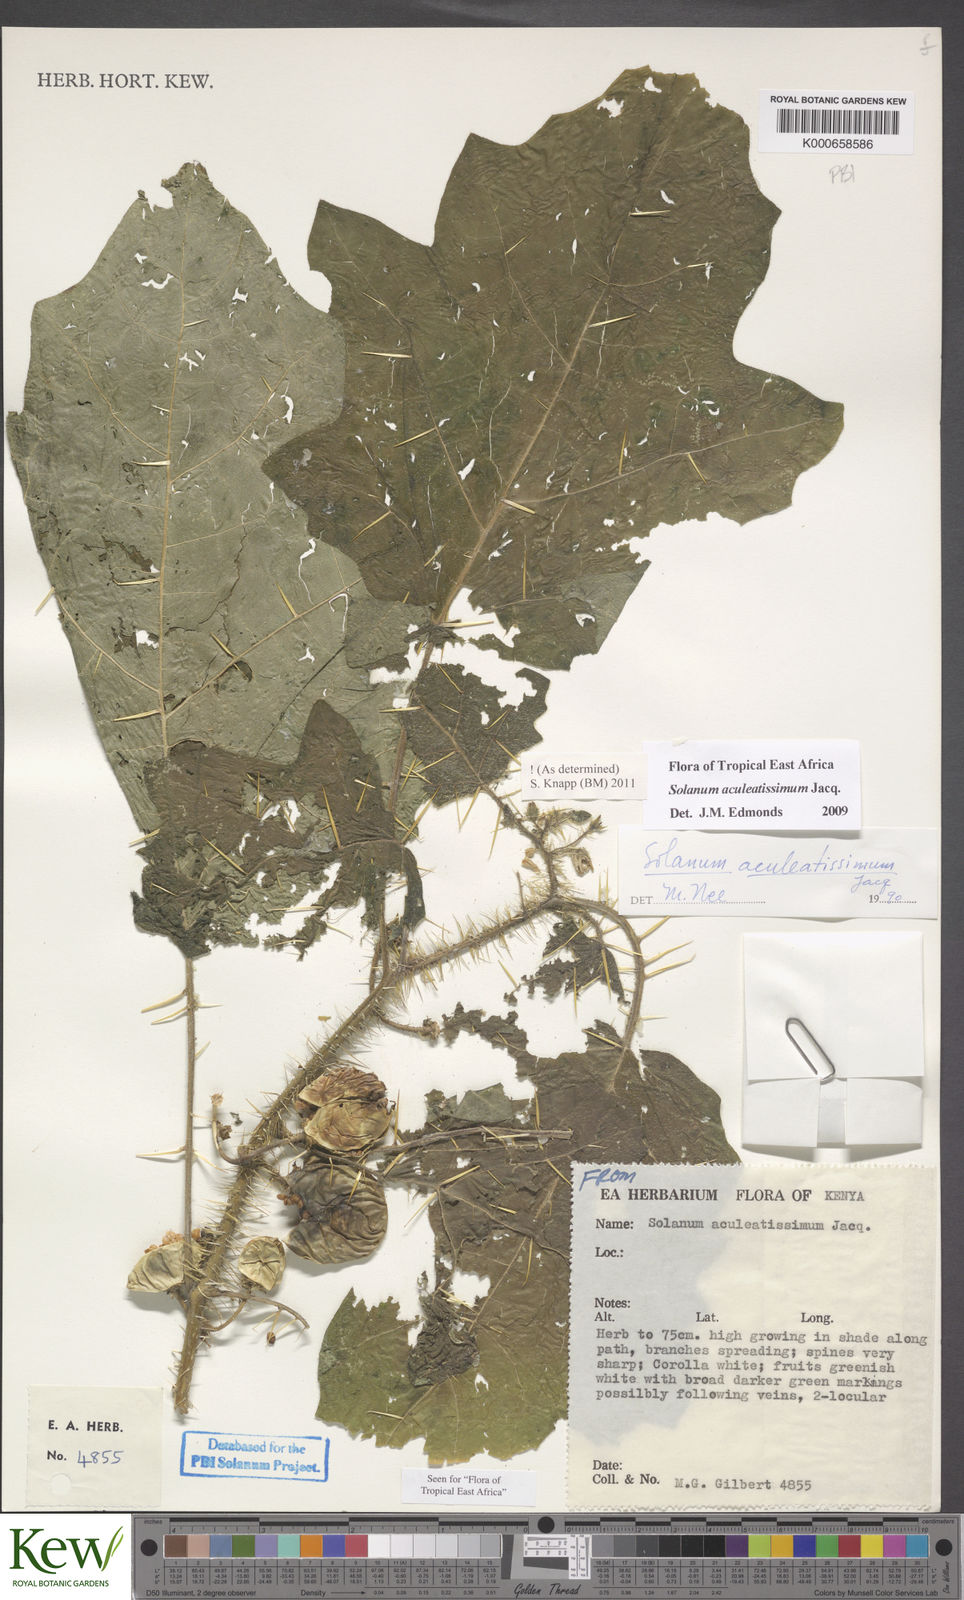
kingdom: Plantae
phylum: Tracheophyta
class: Magnoliopsida
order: Solanales
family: Solanaceae
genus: Solanum
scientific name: Solanum aculeatissimum
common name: Dutch eggplant
